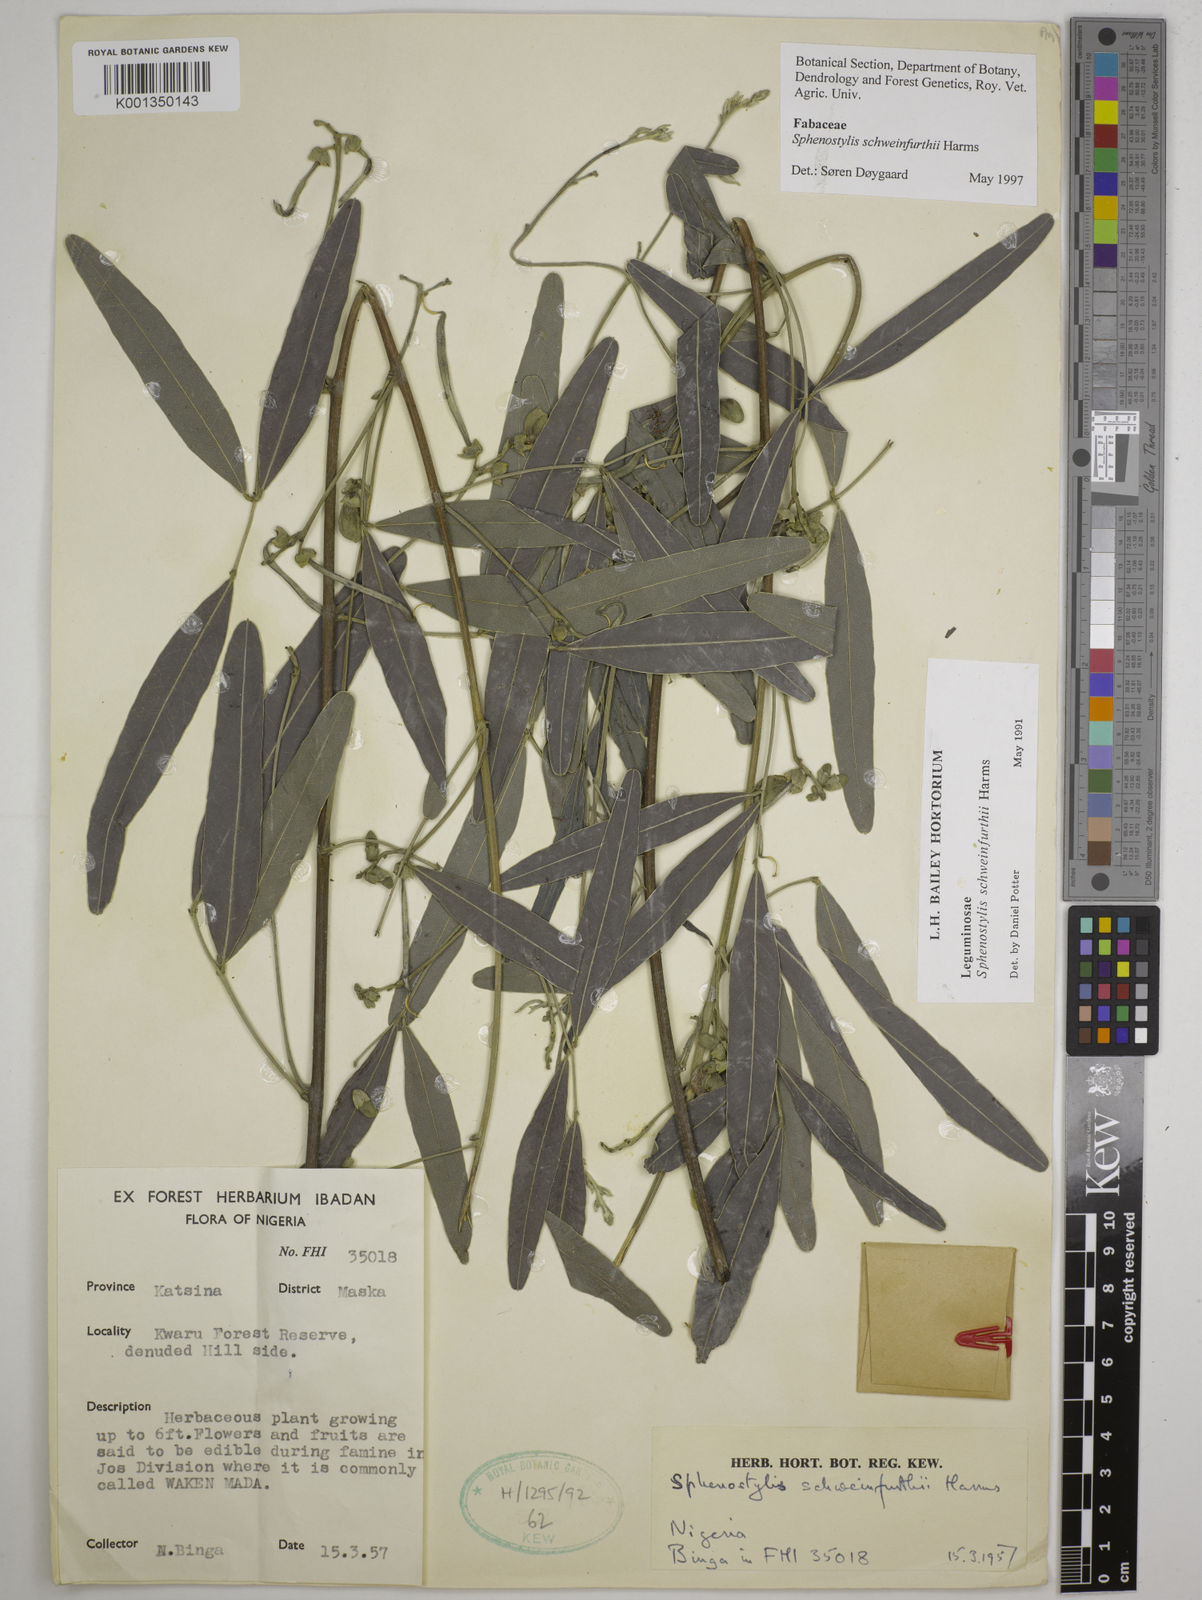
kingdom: Plantae
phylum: Tracheophyta
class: Magnoliopsida
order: Fabales
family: Fabaceae
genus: Sphenostylis
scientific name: Sphenostylis schweinfurthii
